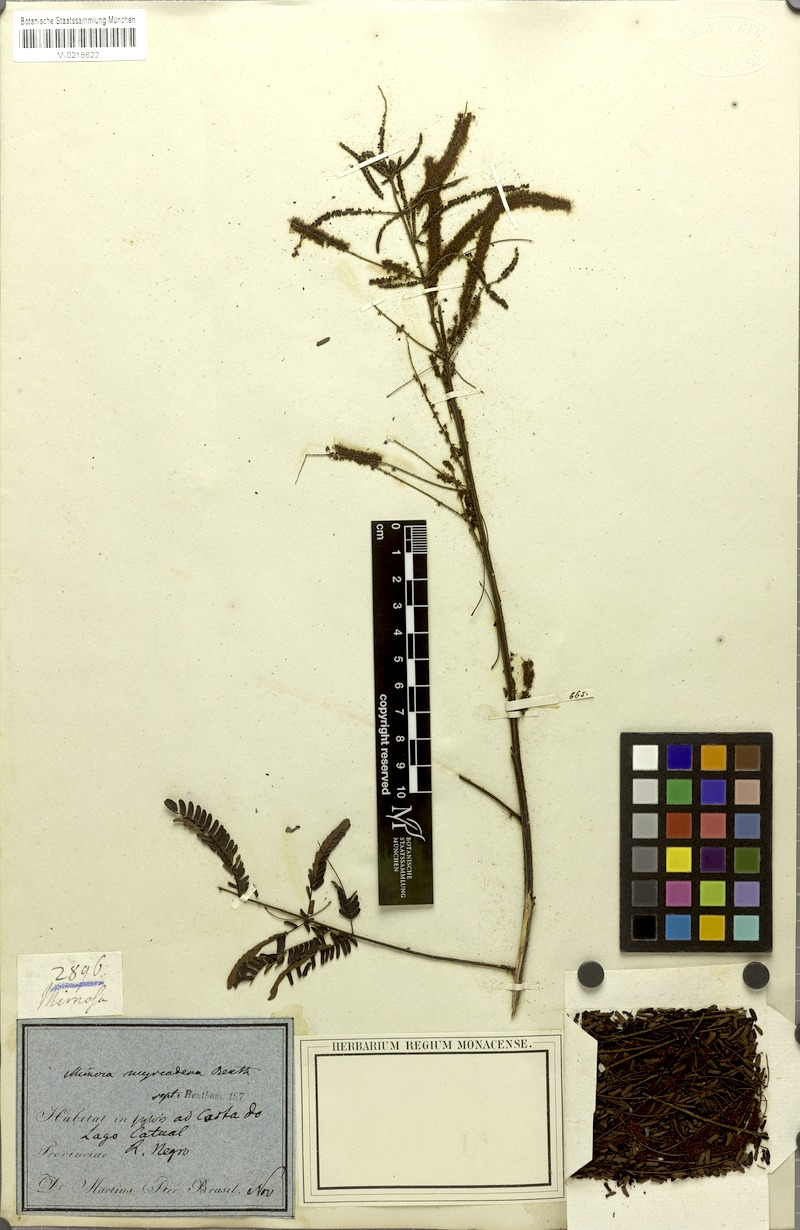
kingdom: Plantae
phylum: Tracheophyta
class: Magnoliopsida
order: Fabales
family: Fabaceae
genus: Mimosa
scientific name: Mimosa myriadenia
